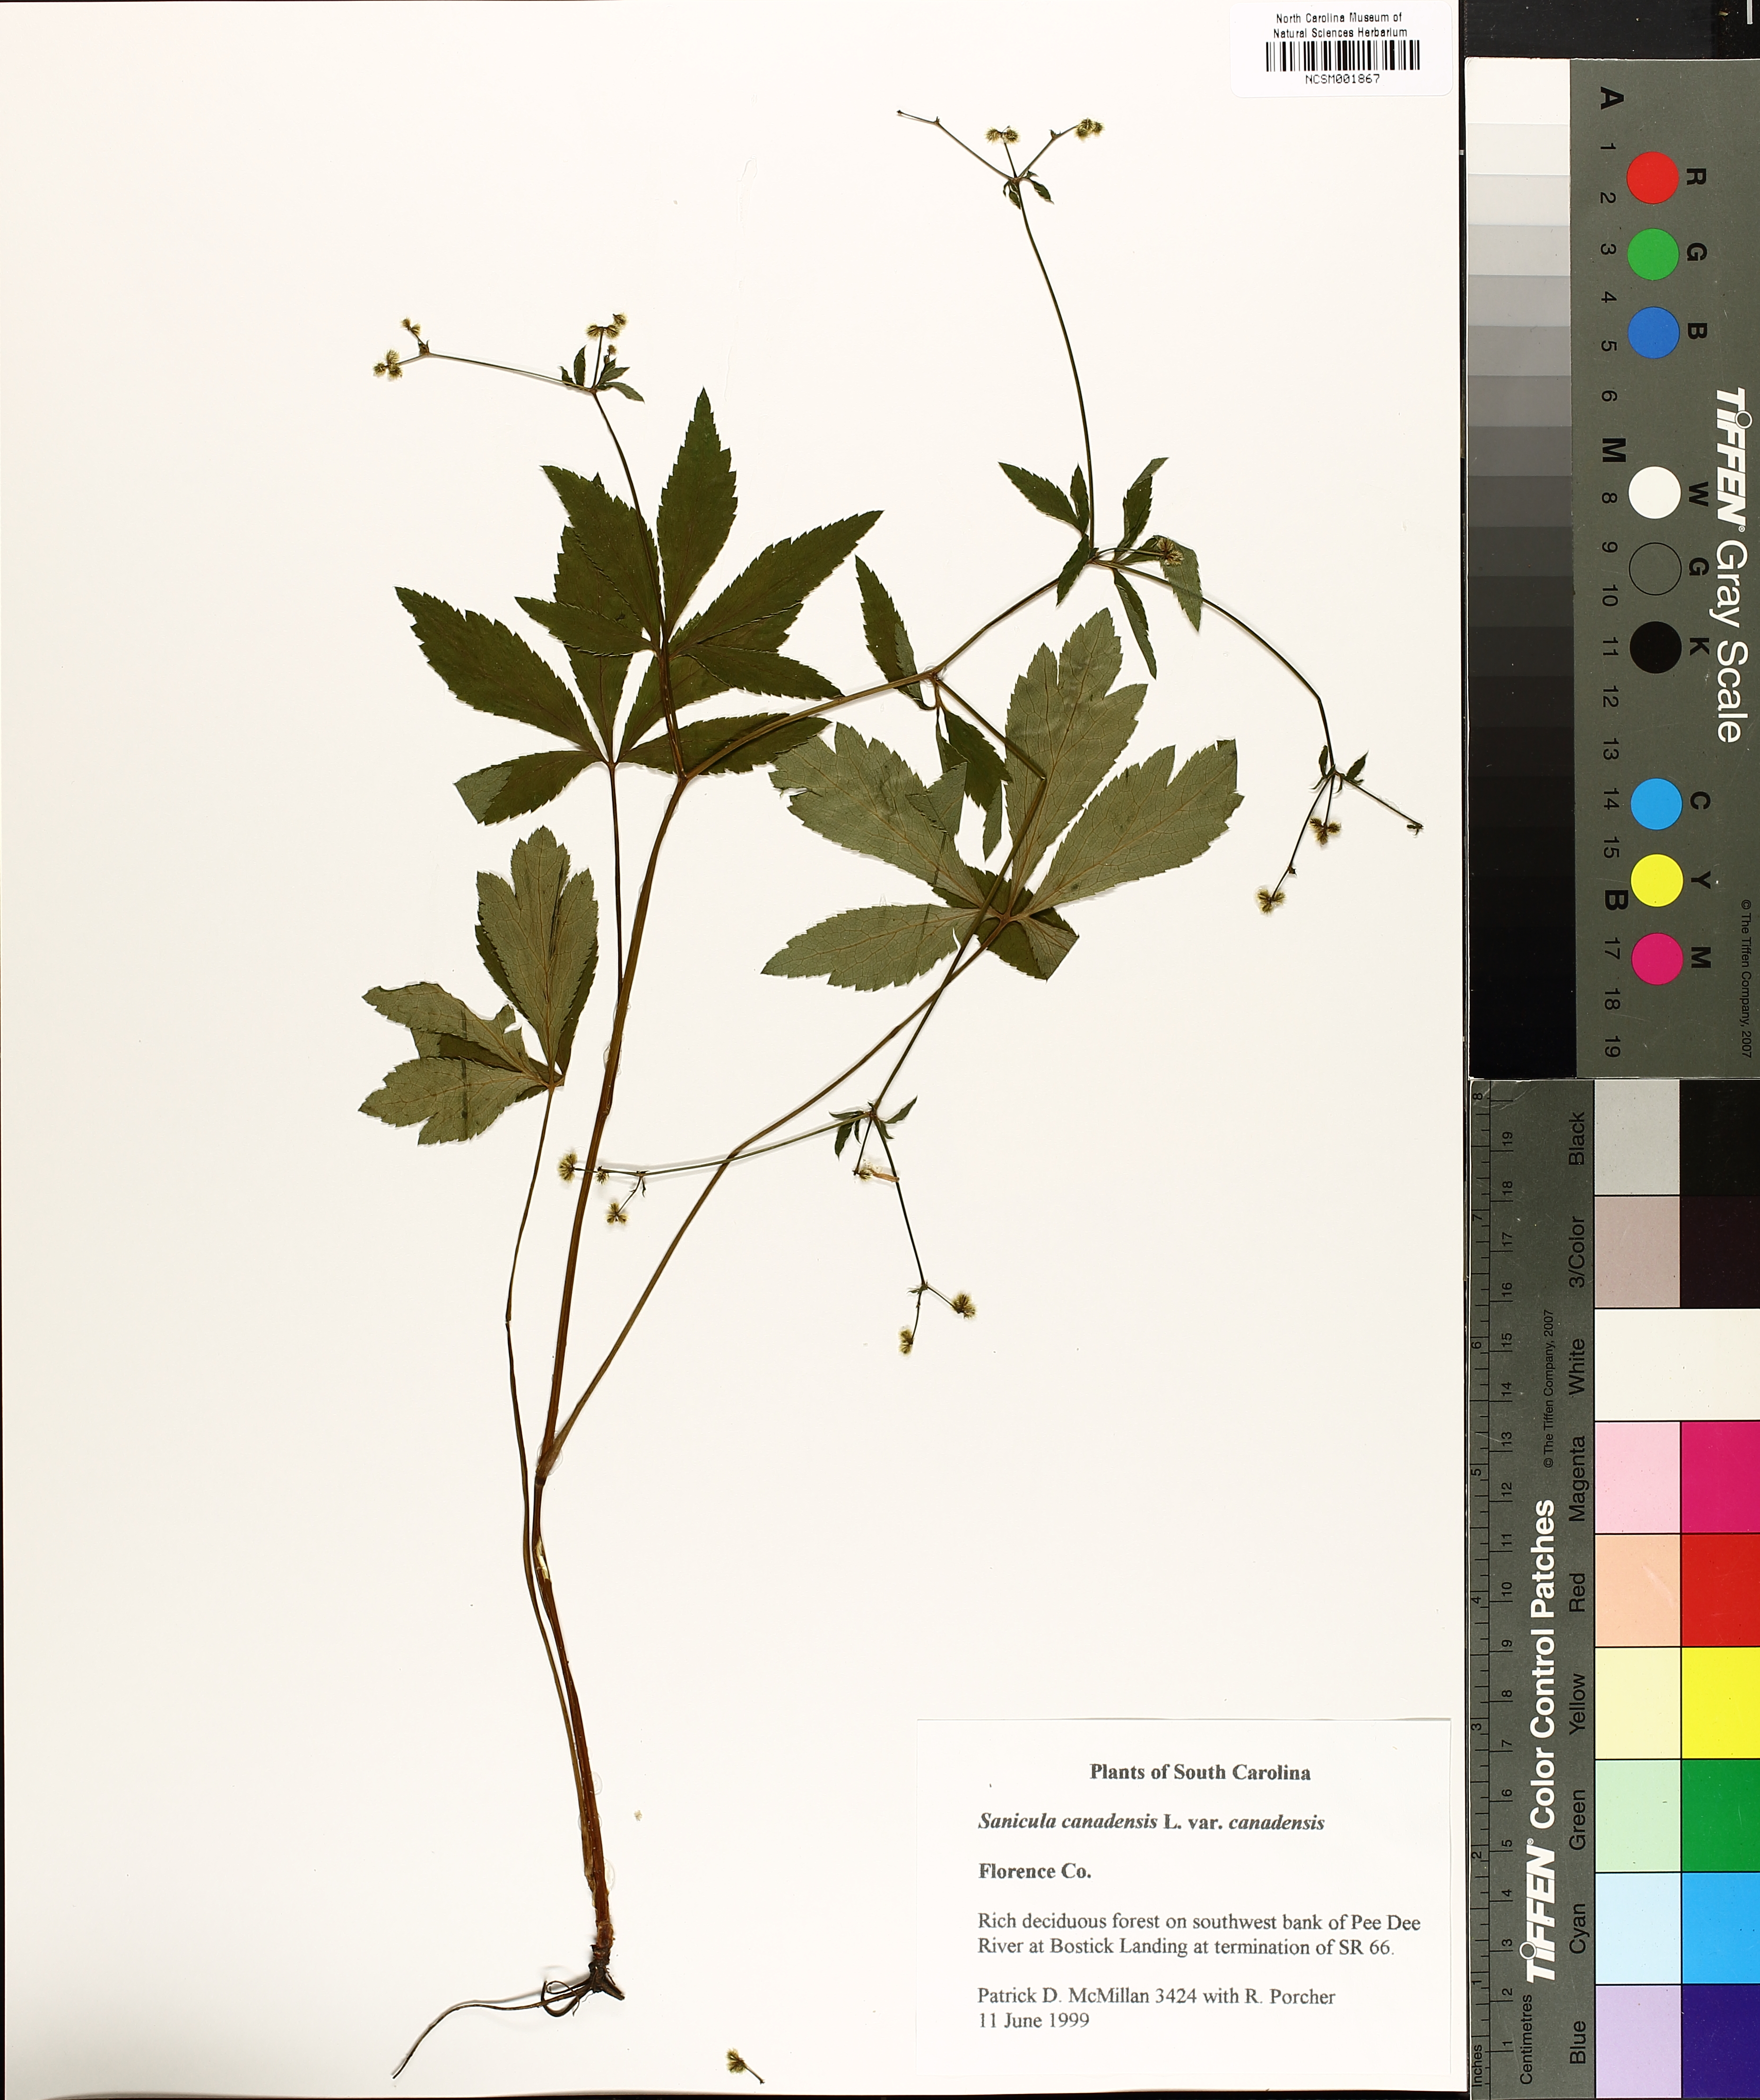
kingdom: Plantae
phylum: Tracheophyta
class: Magnoliopsida
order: Apiales
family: Apiaceae
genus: Sanicula
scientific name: Sanicula canadensis
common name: Canada sanicle
